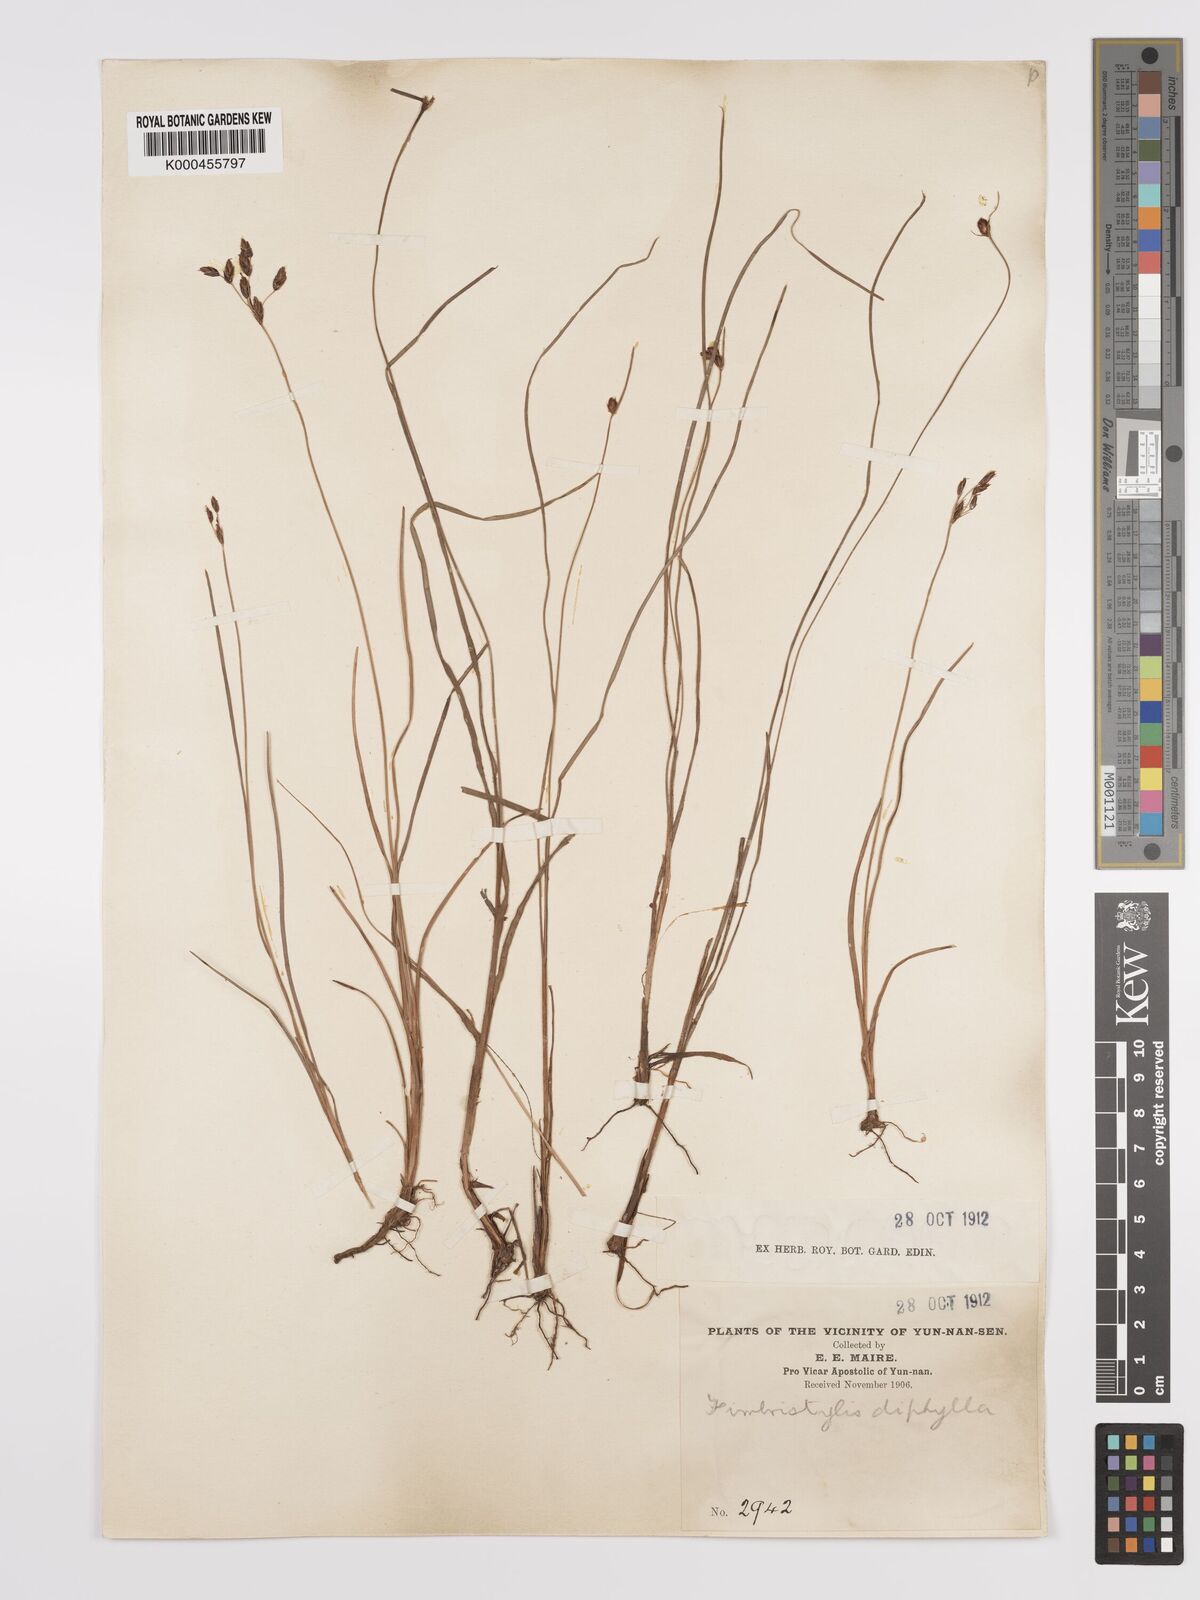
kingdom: Plantae
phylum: Tracheophyta
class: Liliopsida
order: Poales
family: Cyperaceae
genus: Fimbristylis
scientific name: Fimbristylis dichotoma
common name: Forked fimbry
